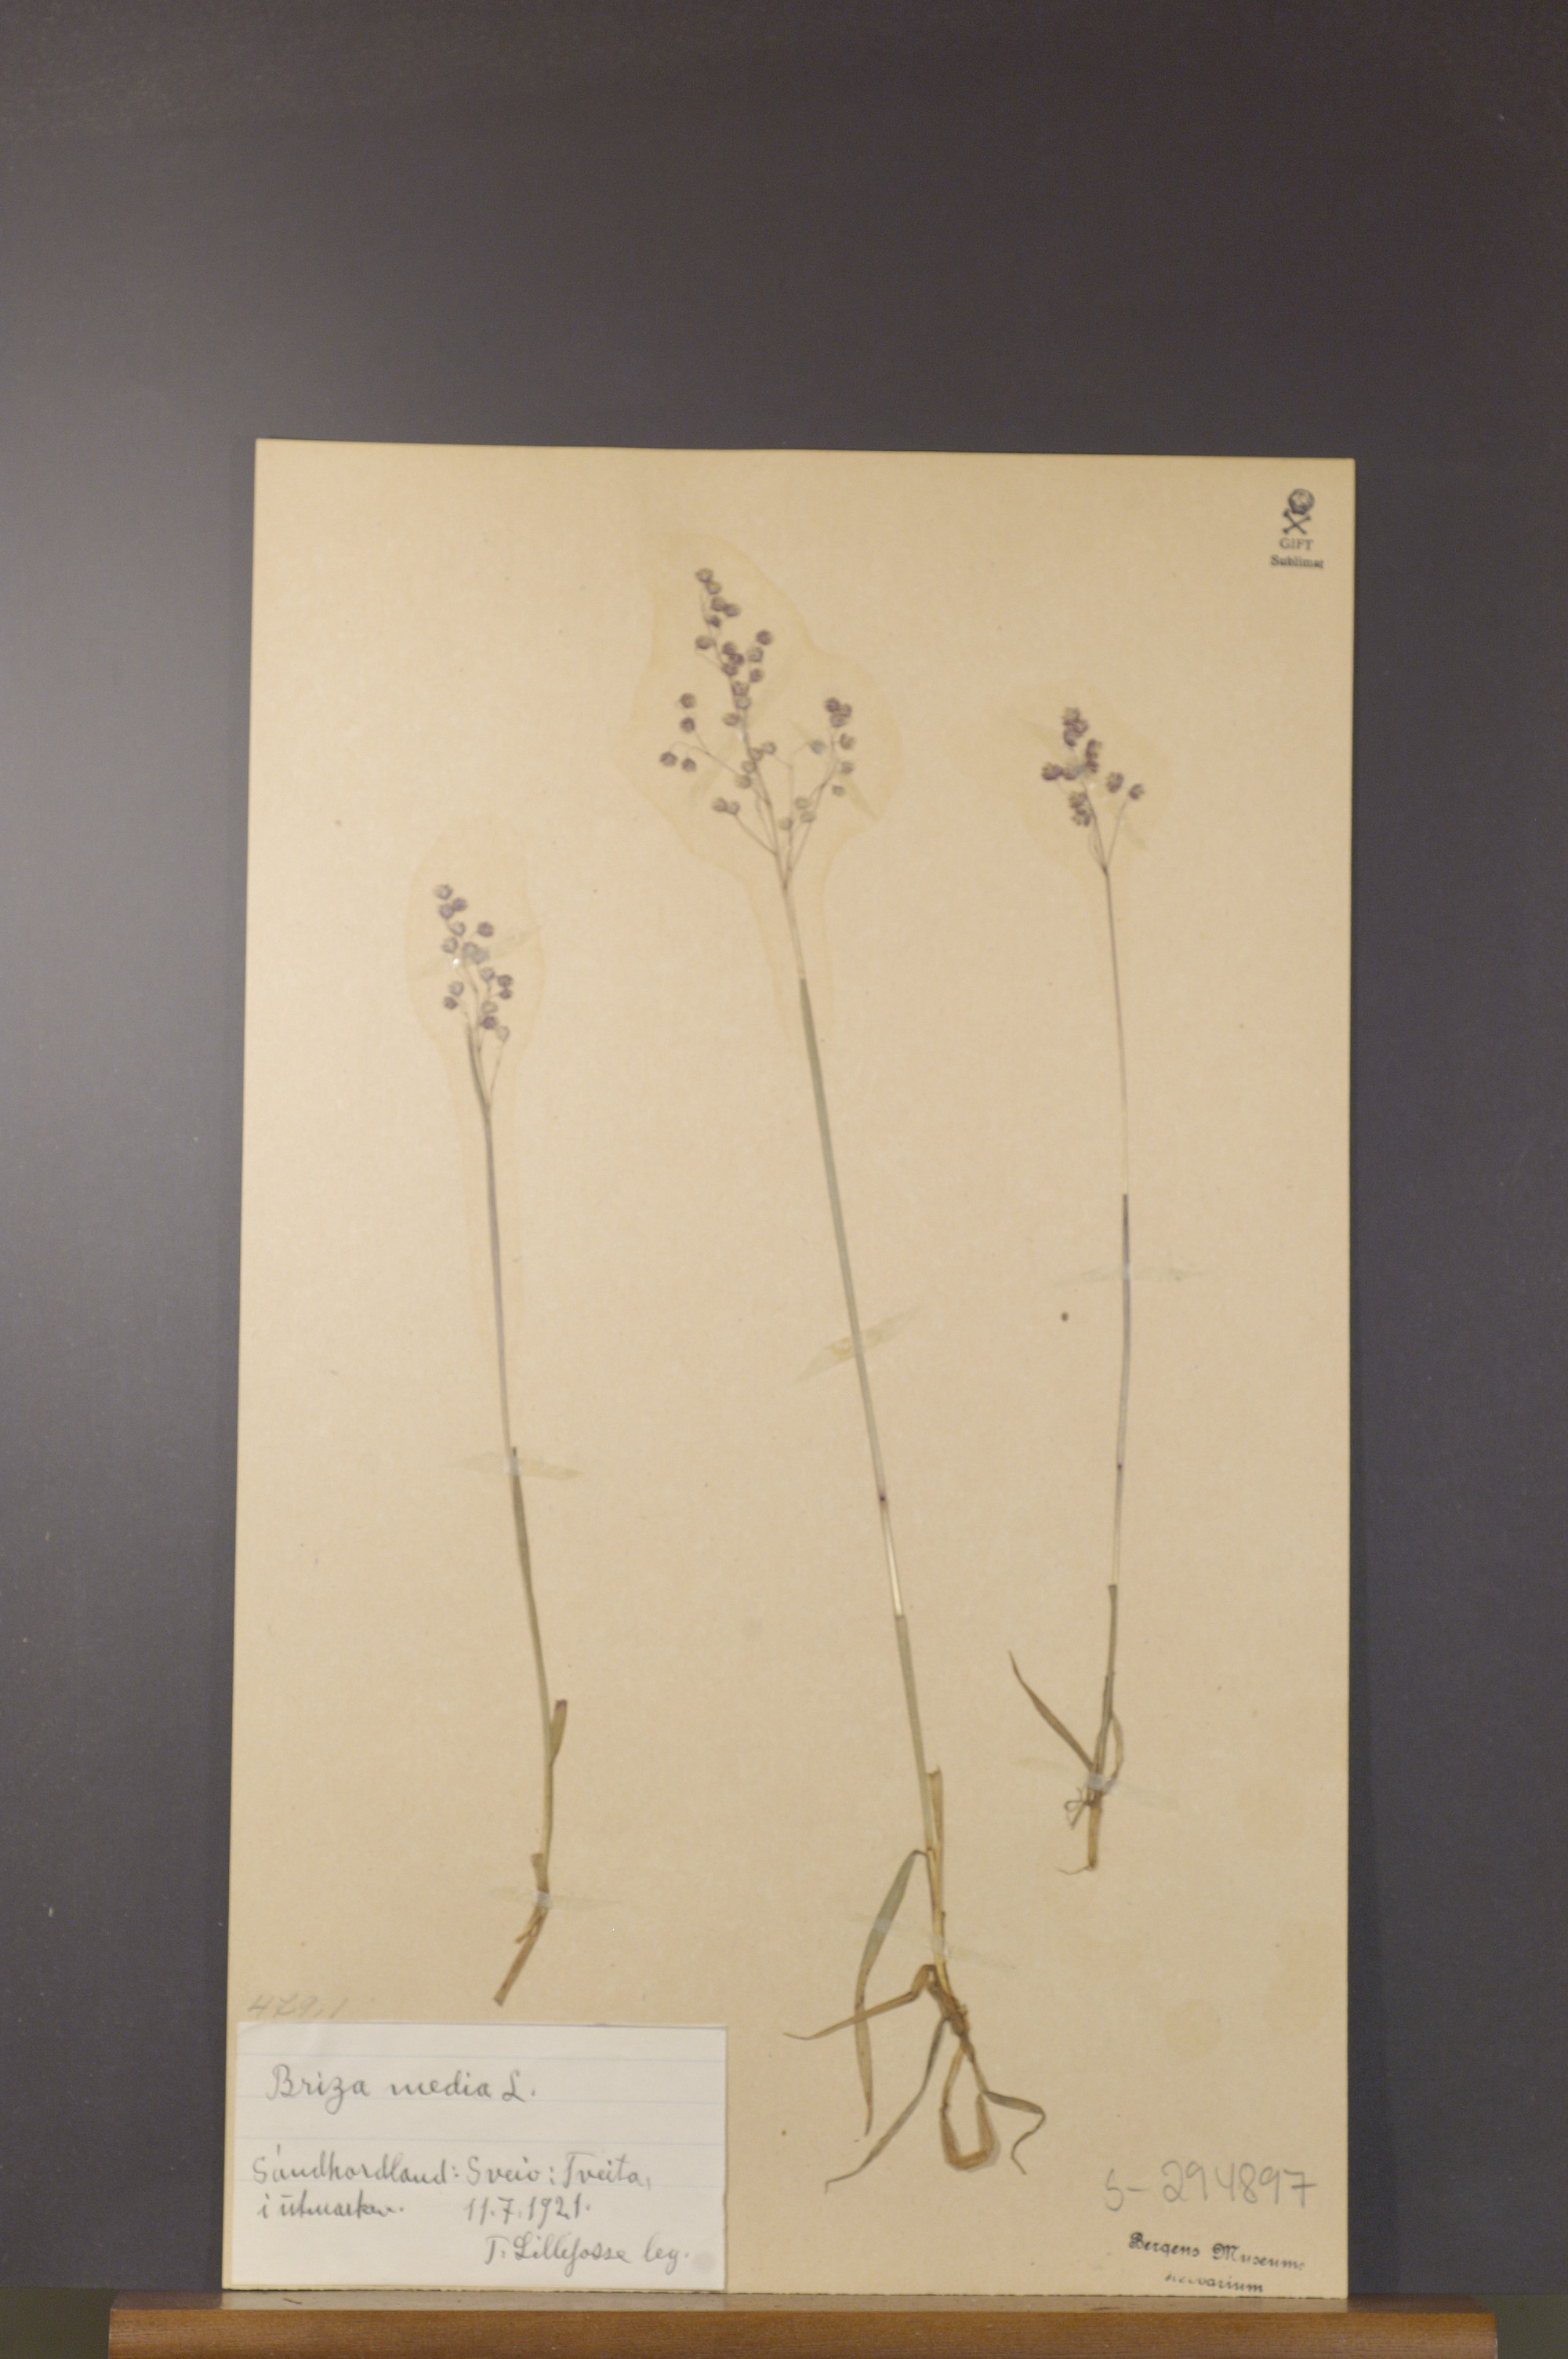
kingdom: Plantae
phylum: Tracheophyta
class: Liliopsida
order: Poales
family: Poaceae
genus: Briza
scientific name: Briza media
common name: Quaking grass
